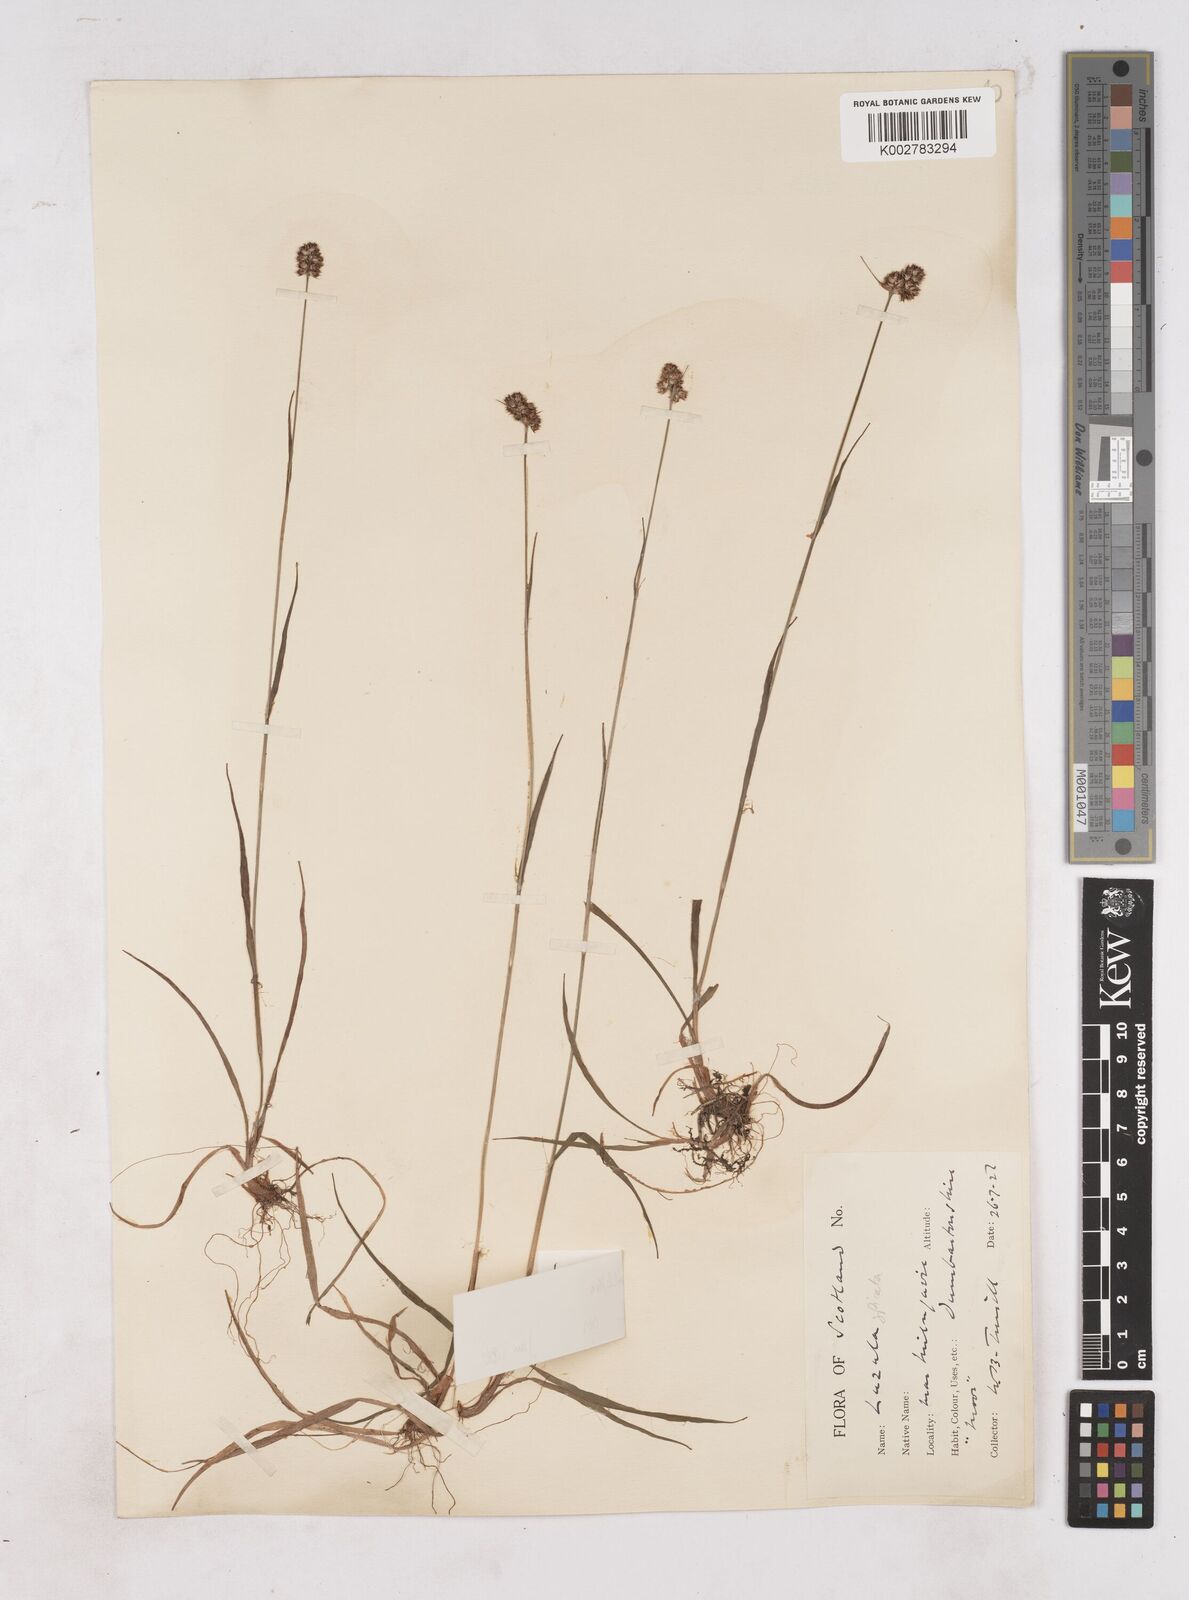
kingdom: Plantae
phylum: Tracheophyta
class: Liliopsida
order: Poales
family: Juncaceae
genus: Luzula
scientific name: Luzula multiflora
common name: Heath wood-rush
